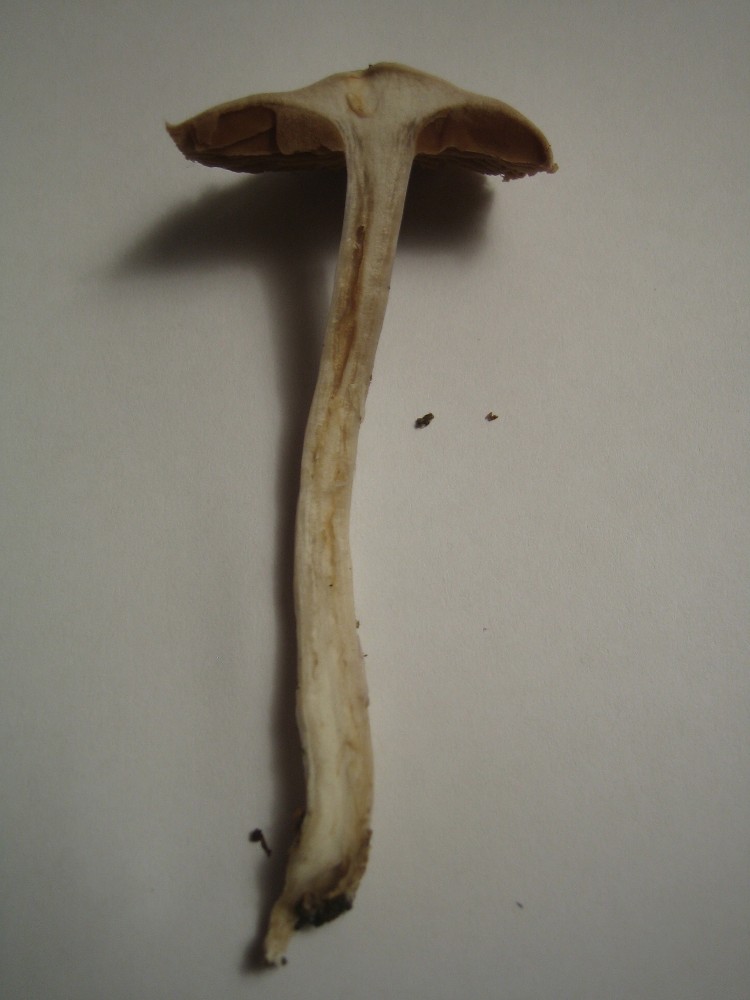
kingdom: Fungi
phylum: Basidiomycota
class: Agaricomycetes
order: Agaricales
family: Cortinariaceae
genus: Cortinarius
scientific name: Cortinarius
